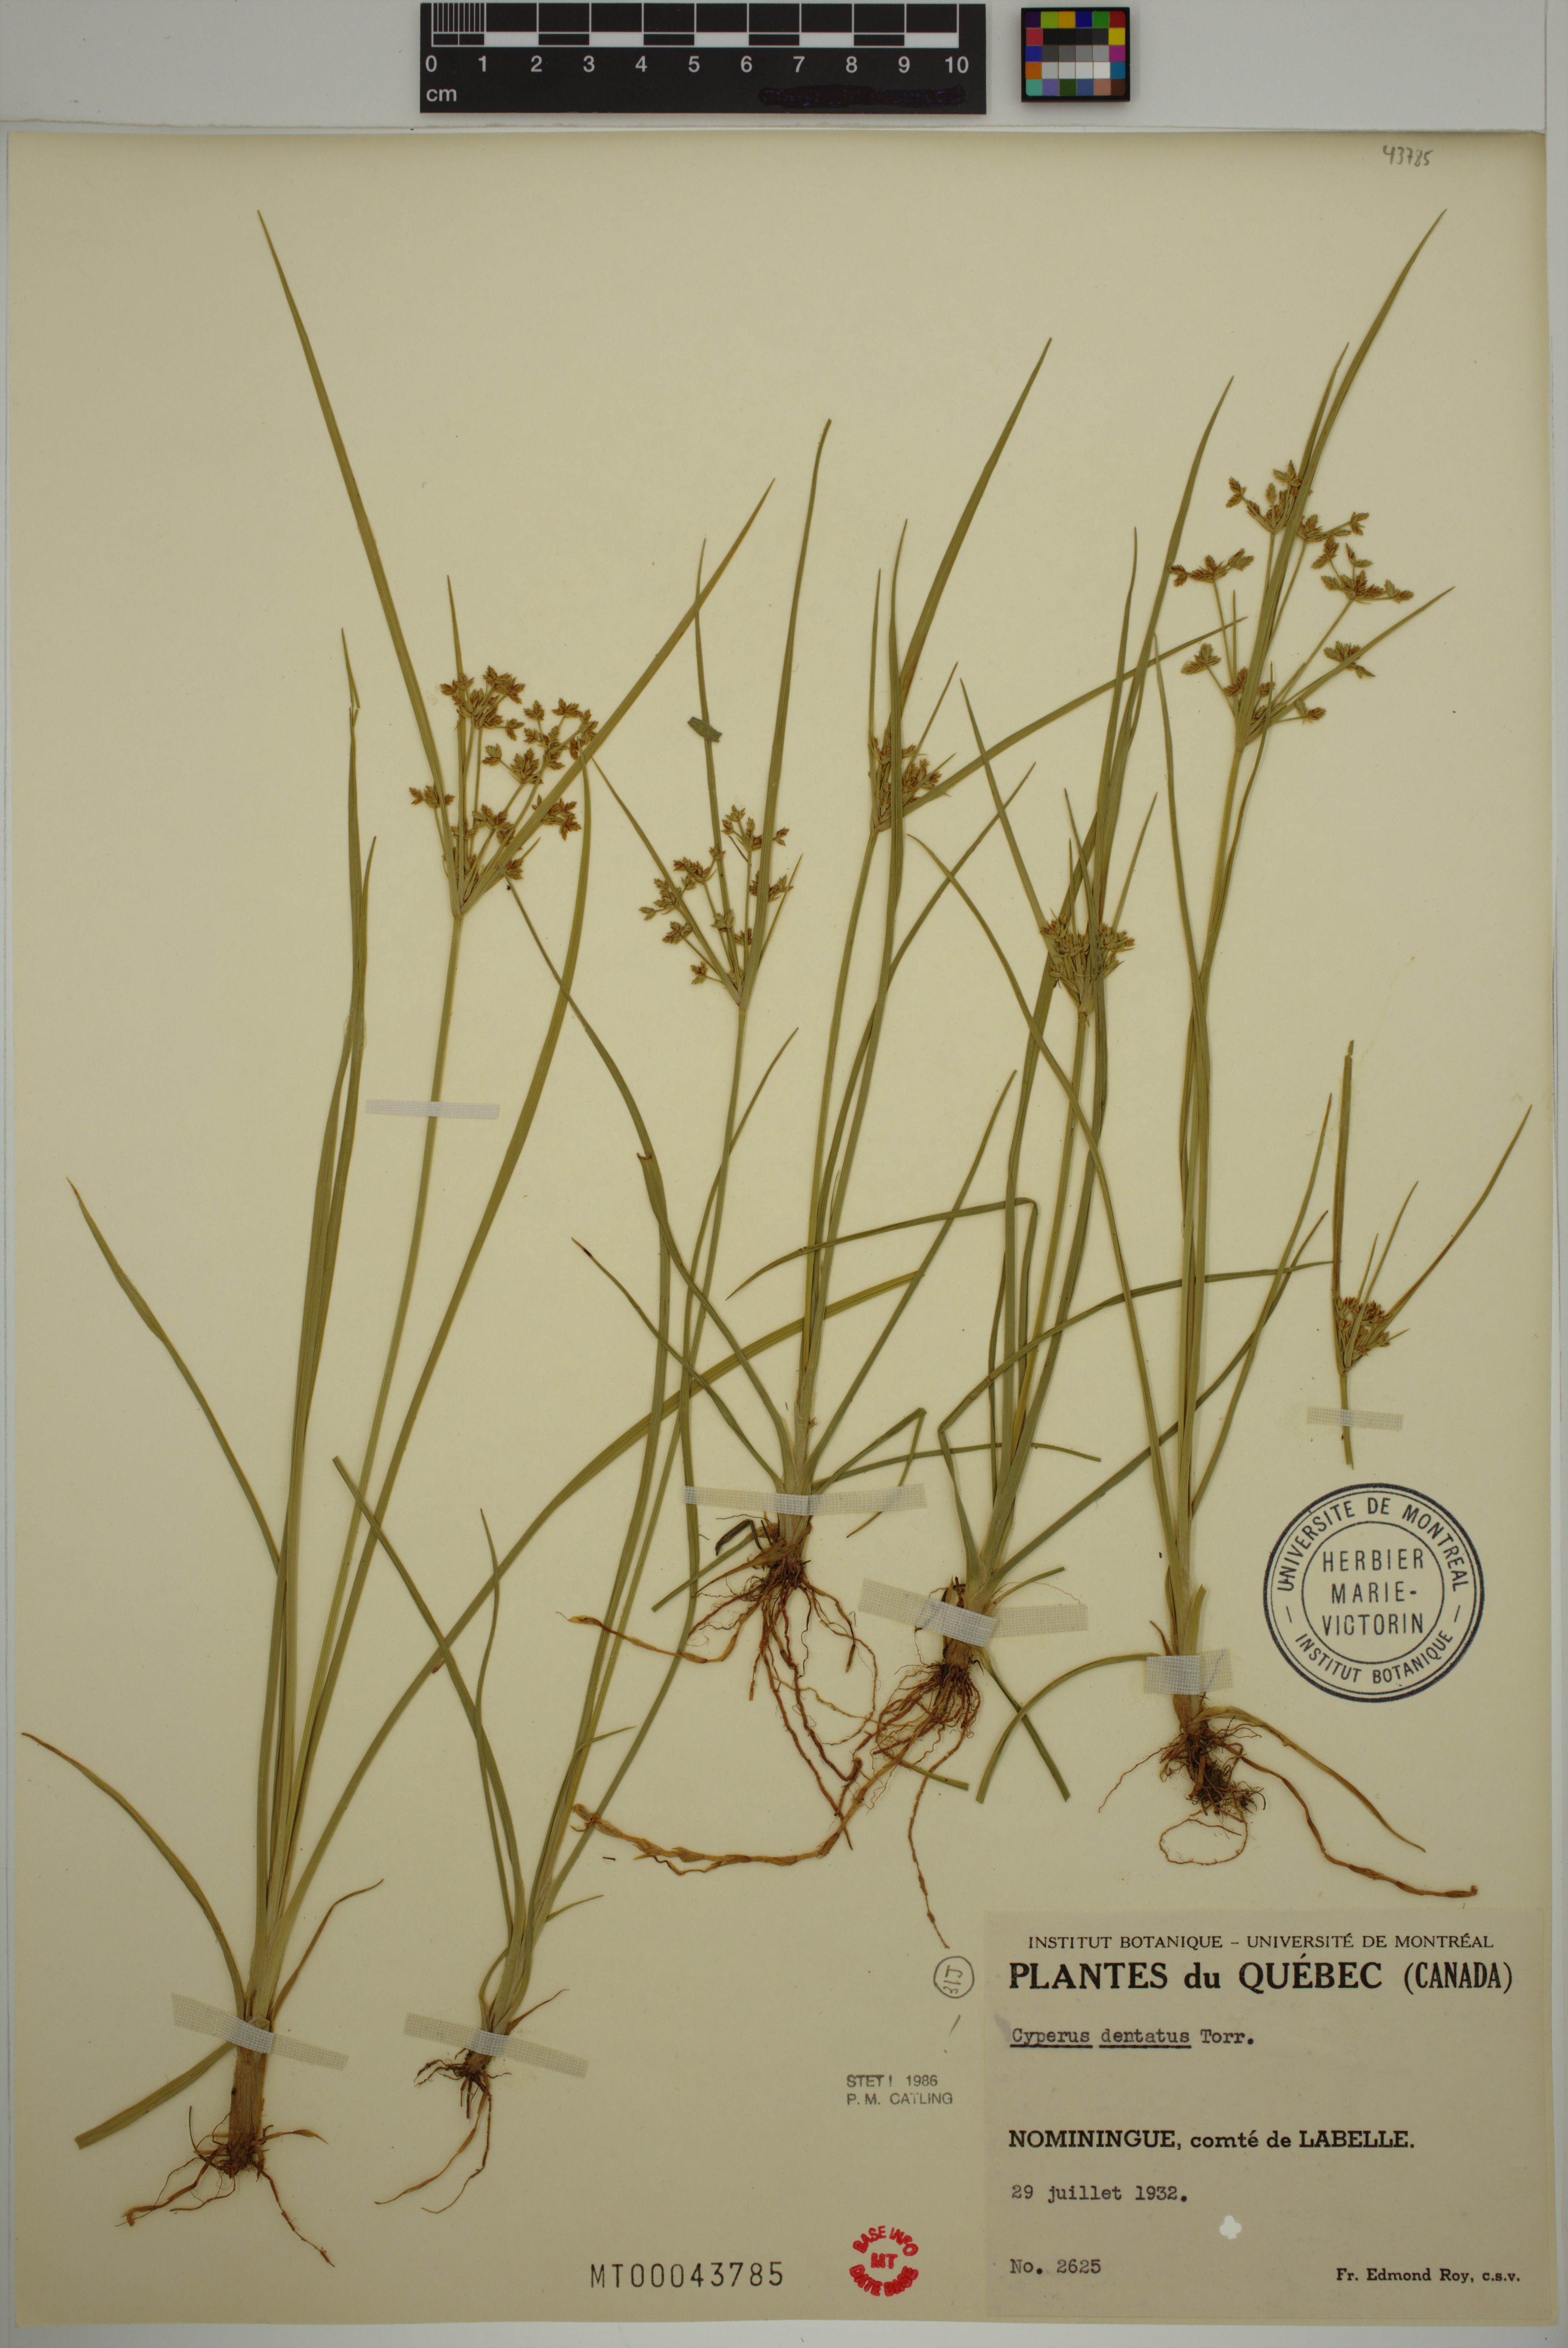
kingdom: Plantae
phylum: Tracheophyta
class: Liliopsida
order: Poales
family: Cyperaceae
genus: Cyperus
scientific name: Cyperus dentatus
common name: Dentate umbrella sedge
